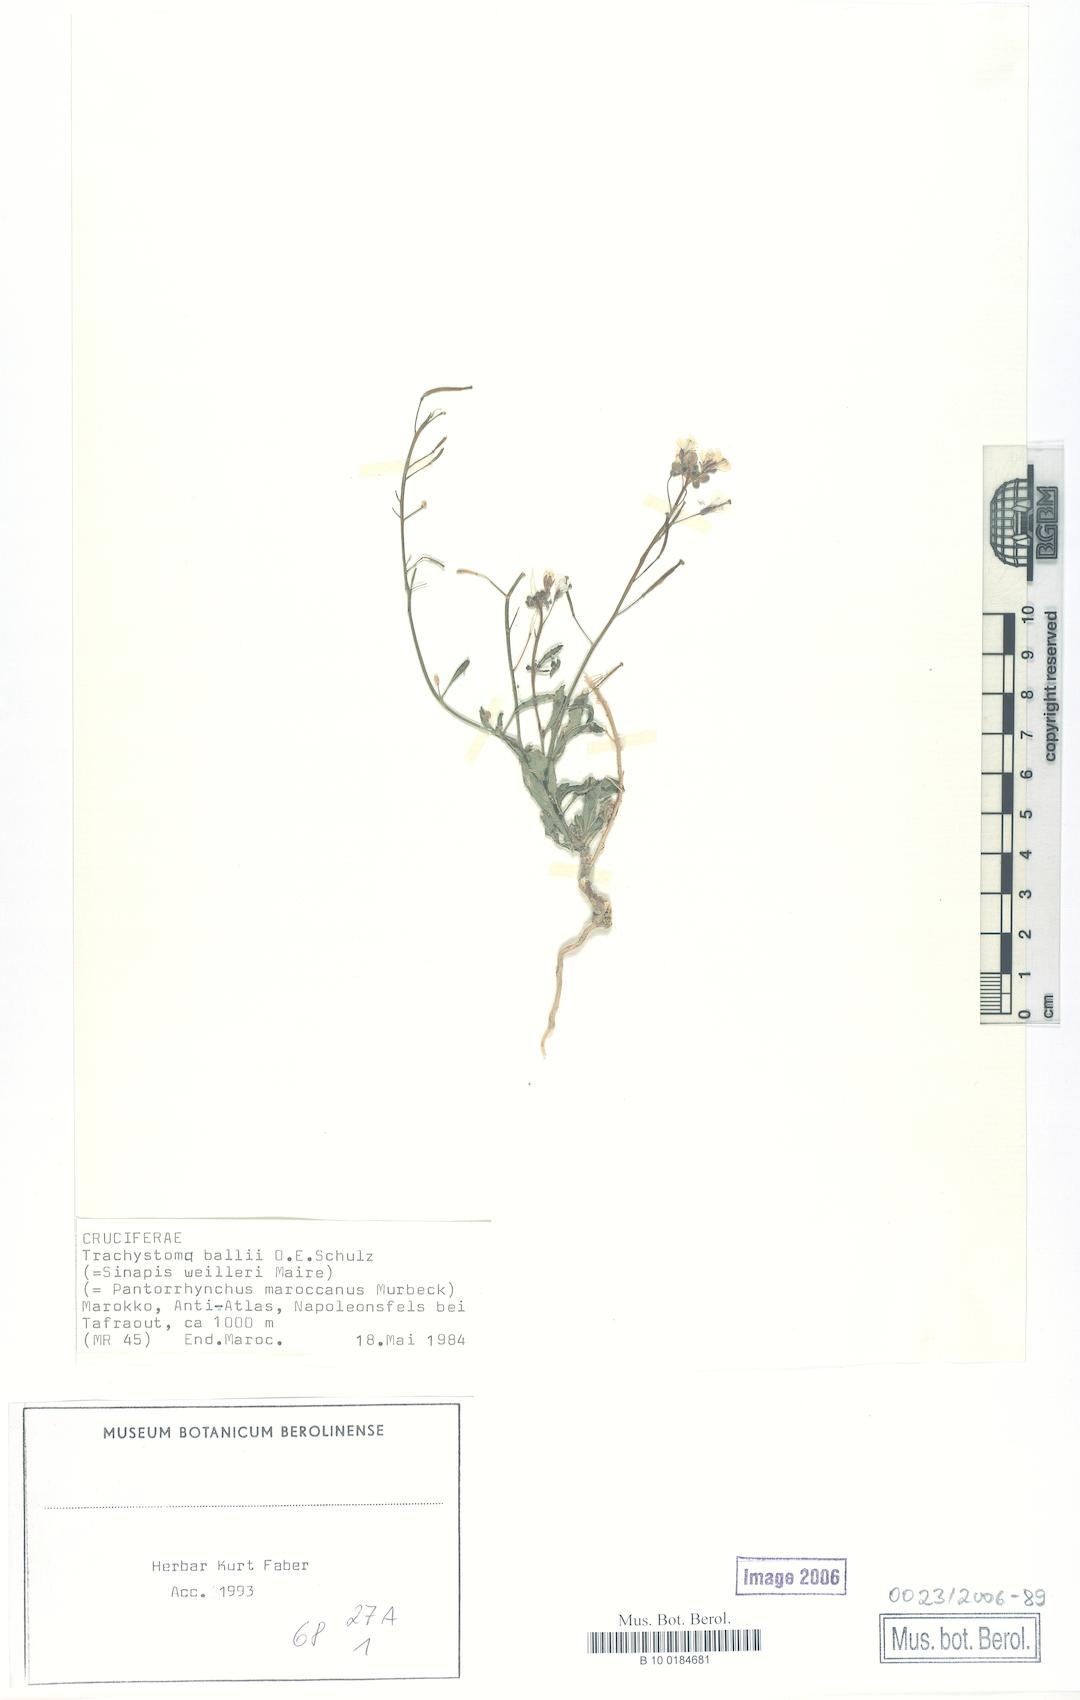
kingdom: Plantae
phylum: Tracheophyta
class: Magnoliopsida
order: Brassicales
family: Brassicaceae
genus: Trachystoma
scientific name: Trachystoma ballii
